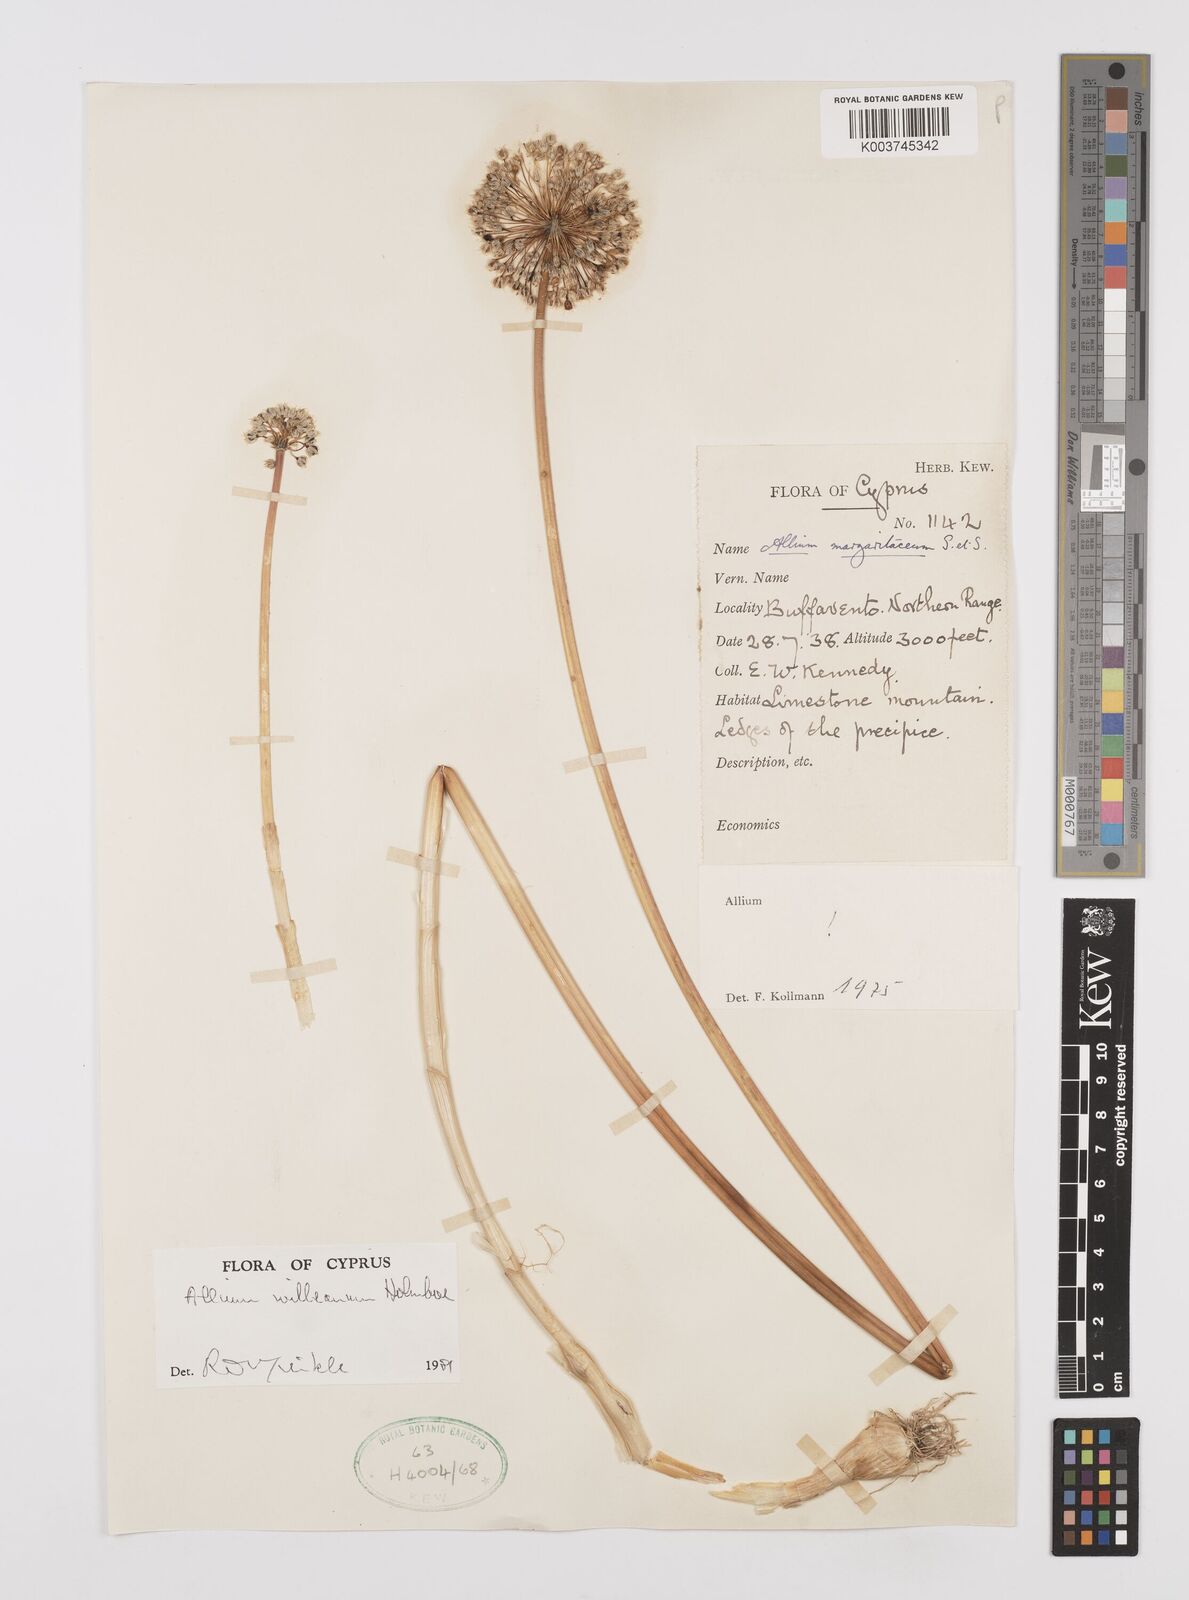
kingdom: Plantae
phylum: Tracheophyta
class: Liliopsida
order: Asparagales
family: Amaryllidaceae
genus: Allium
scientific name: Allium willeanum
